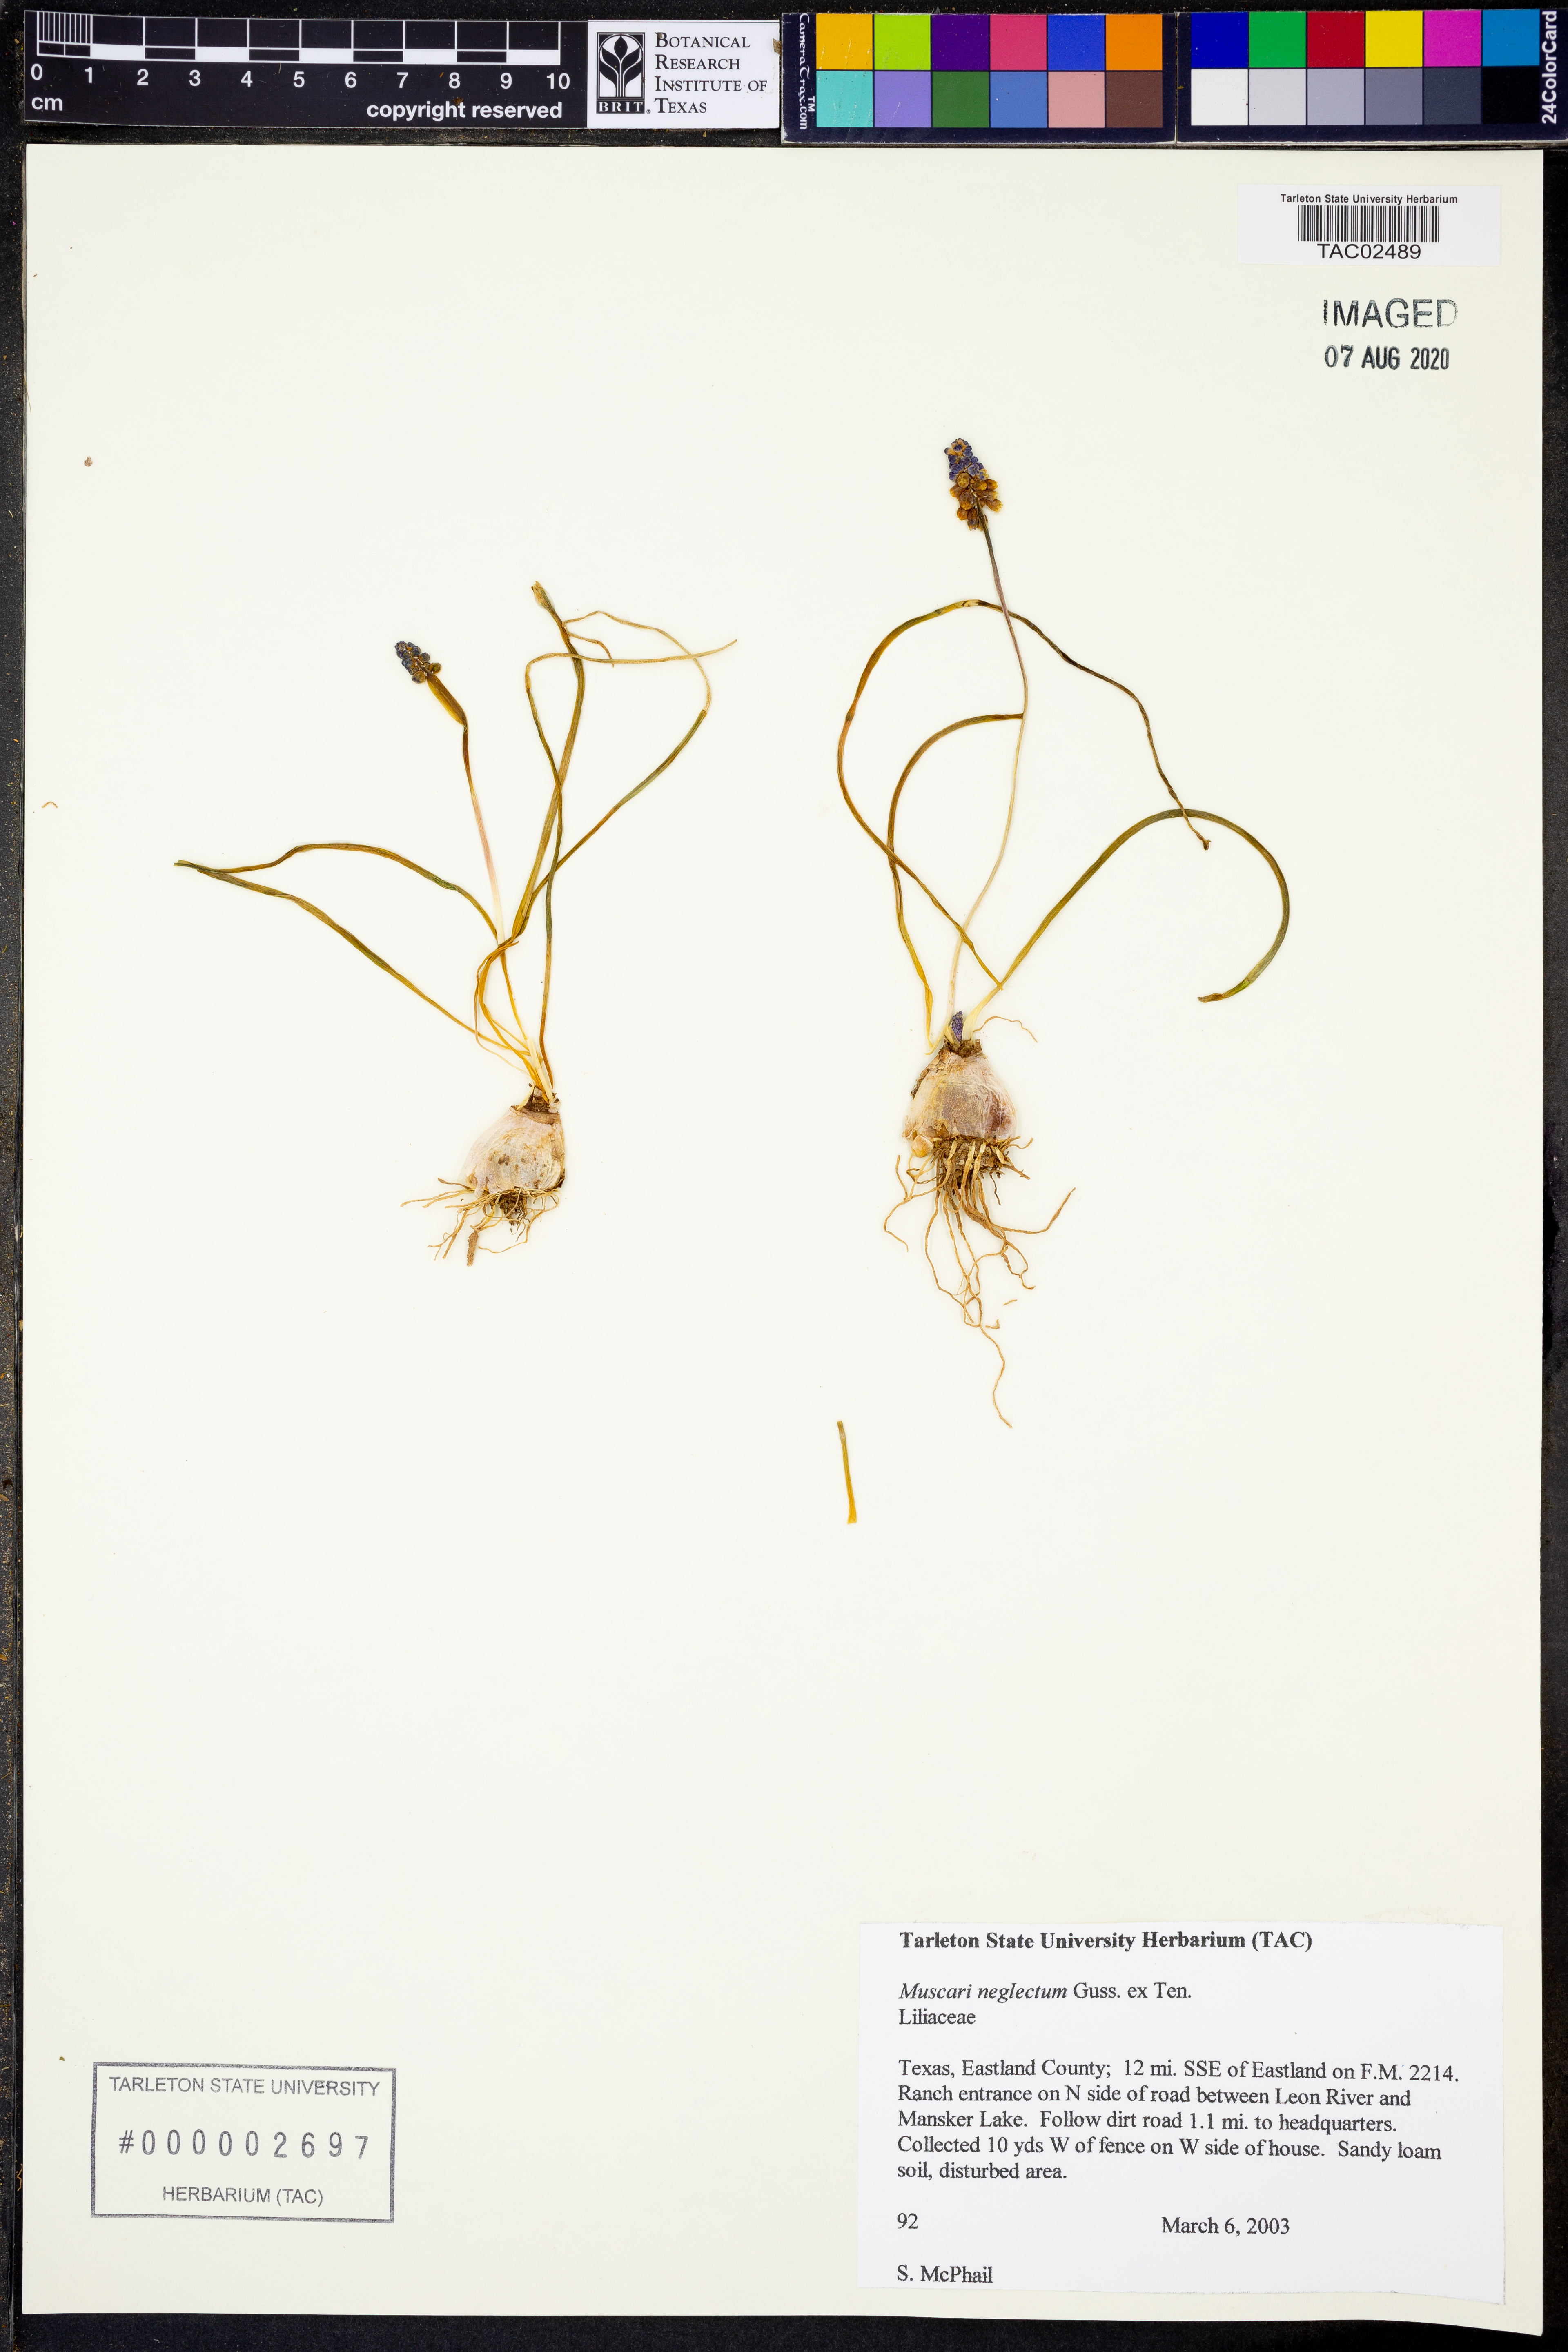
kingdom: Plantae
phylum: Tracheophyta
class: Liliopsida
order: Asparagales
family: Asparagaceae
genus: Muscari
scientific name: Muscari neglectum
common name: Grape-hyacinth
